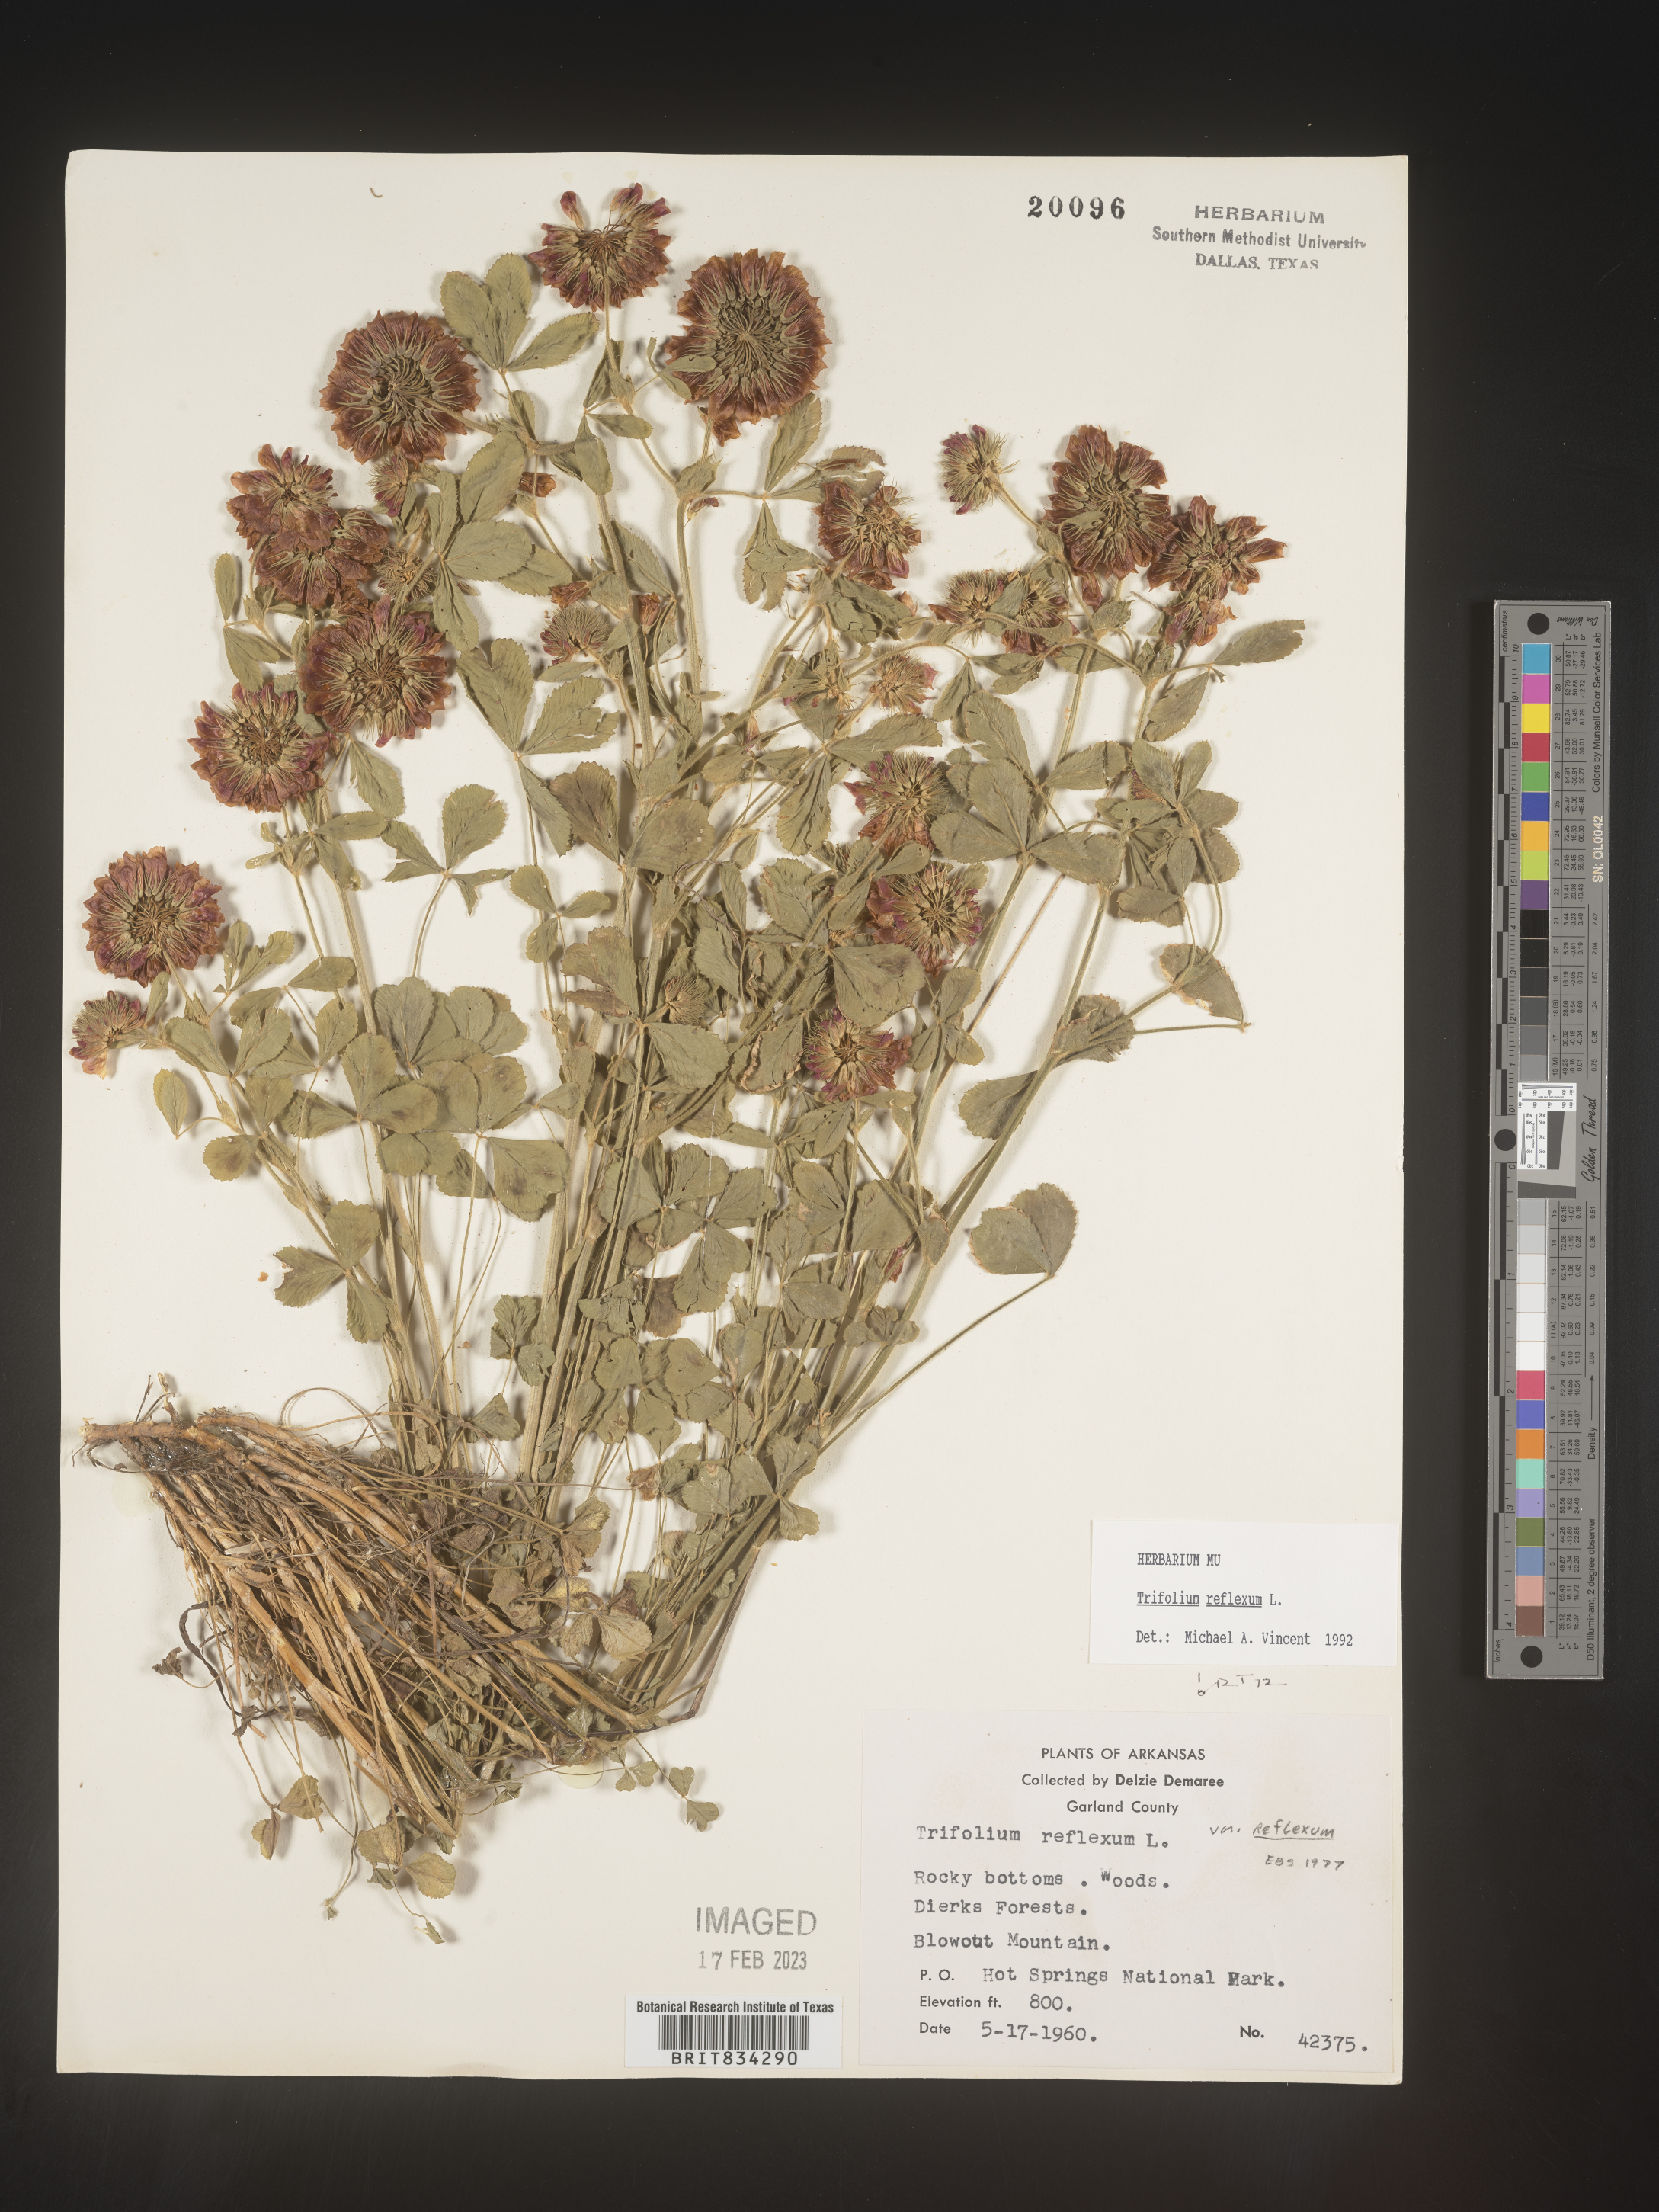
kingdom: Plantae
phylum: Tracheophyta
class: Magnoliopsida
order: Fabales
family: Fabaceae
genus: Trifolium
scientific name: Trifolium reflexum
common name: Buffalo clover
